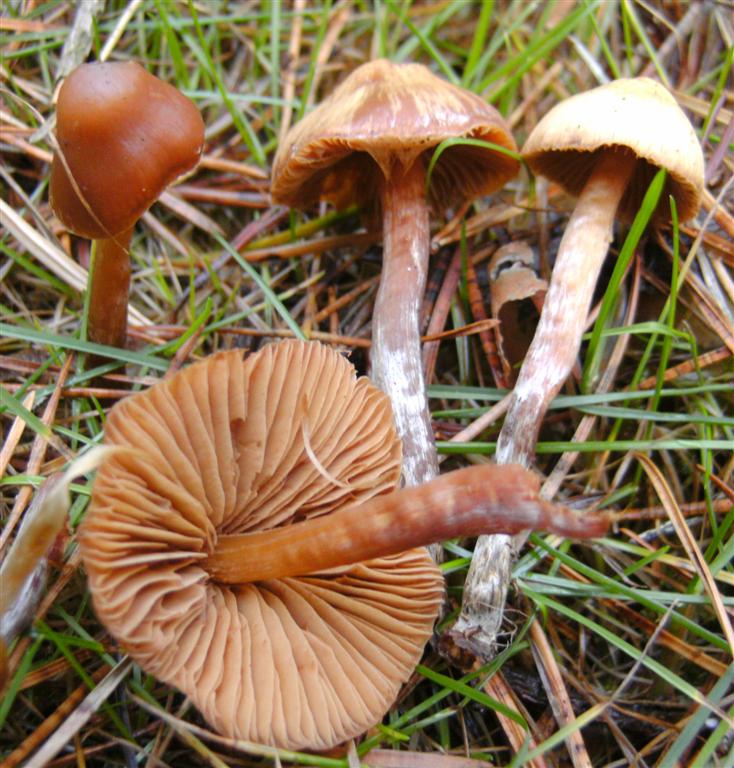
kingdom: Fungi
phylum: Basidiomycota
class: Agaricomycetes
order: Agaricales
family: Hymenogastraceae
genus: Galerina
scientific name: Galerina sideroides
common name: træflis-hjelmhat
